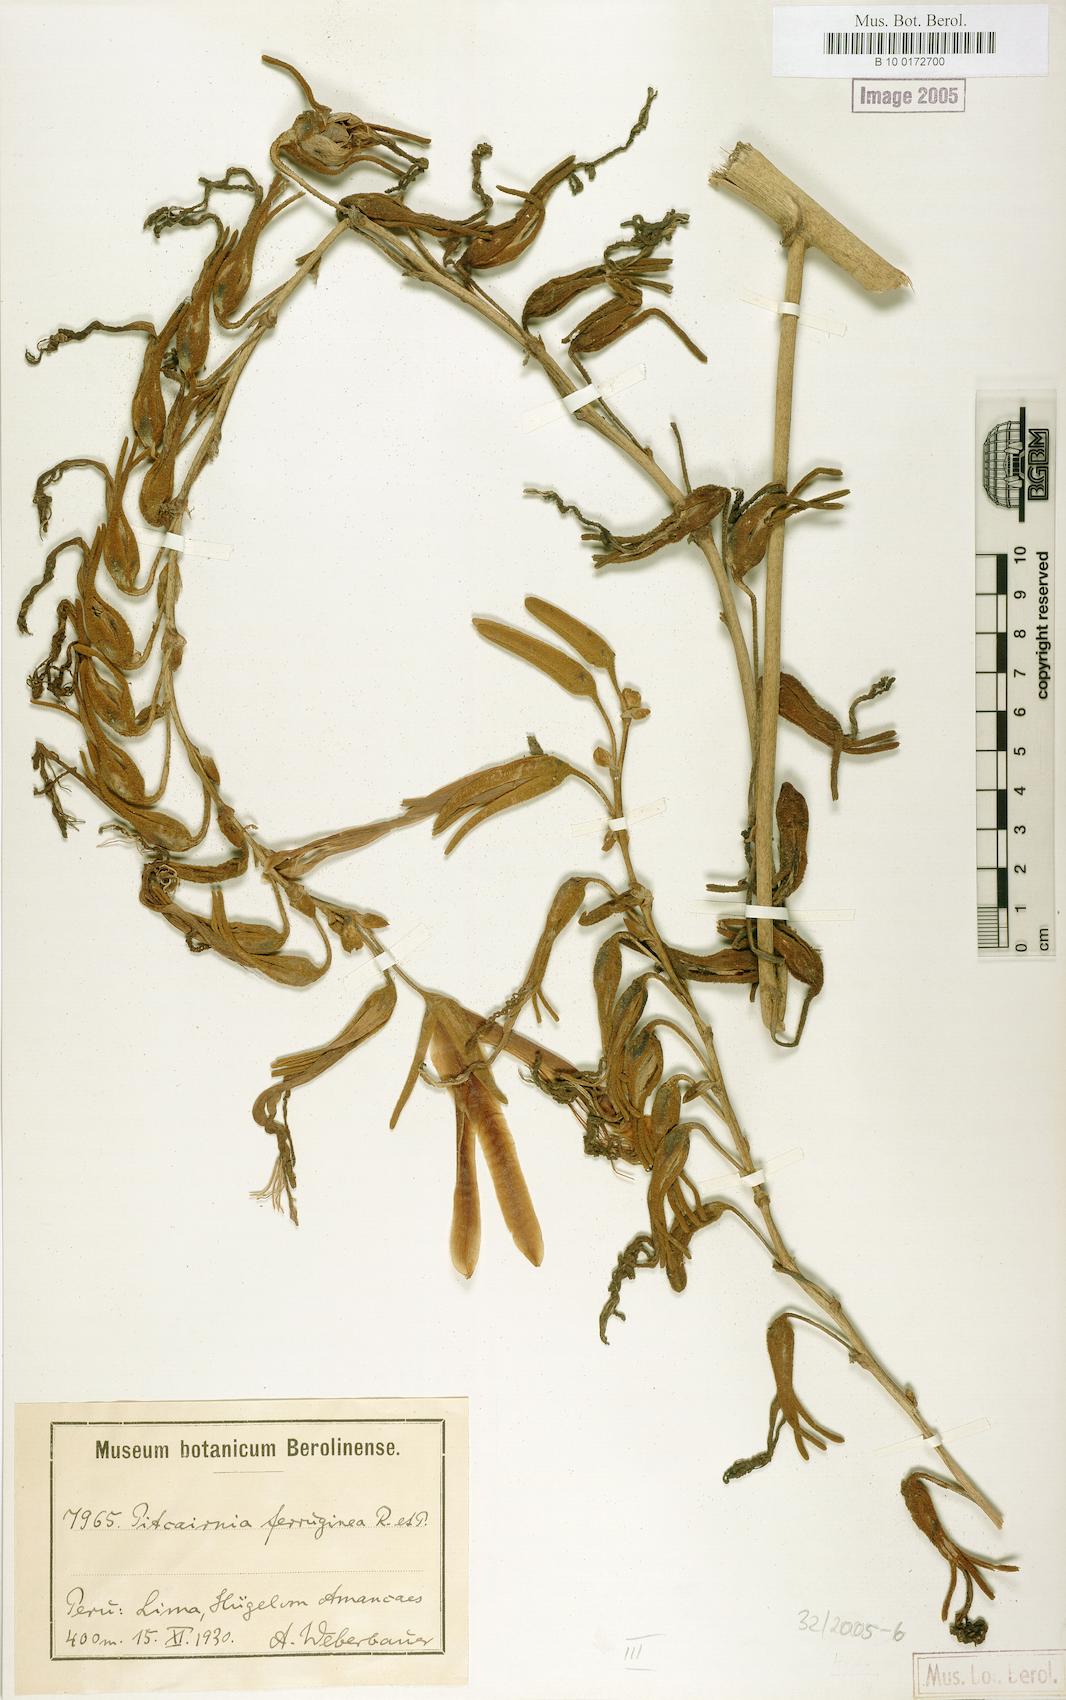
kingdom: Plantae
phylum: Tracheophyta
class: Liliopsida
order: Poales
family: Bromeliaceae
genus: Puya
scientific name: Puya ferruginea
